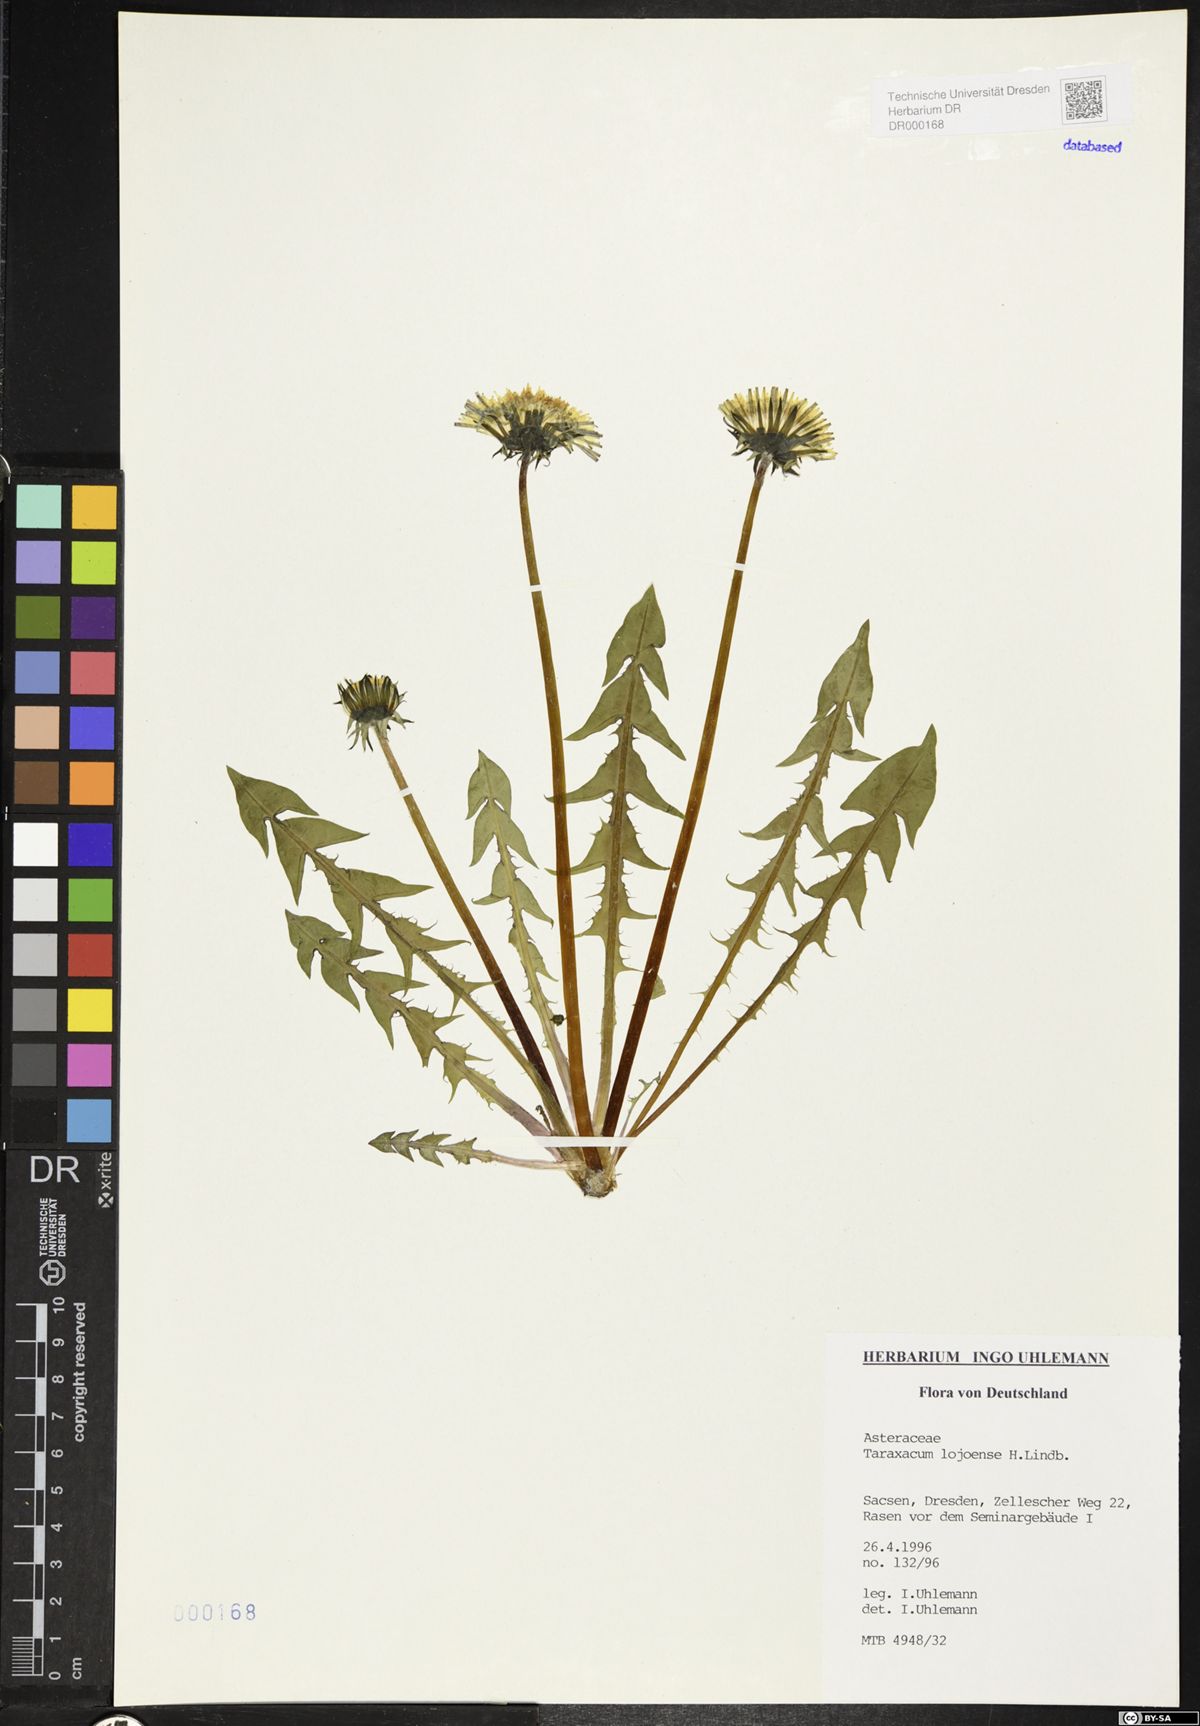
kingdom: Plantae
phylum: Tracheophyta
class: Magnoliopsida
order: Asterales
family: Asteraceae
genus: Taraxacum
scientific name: Taraxacum debrayi
